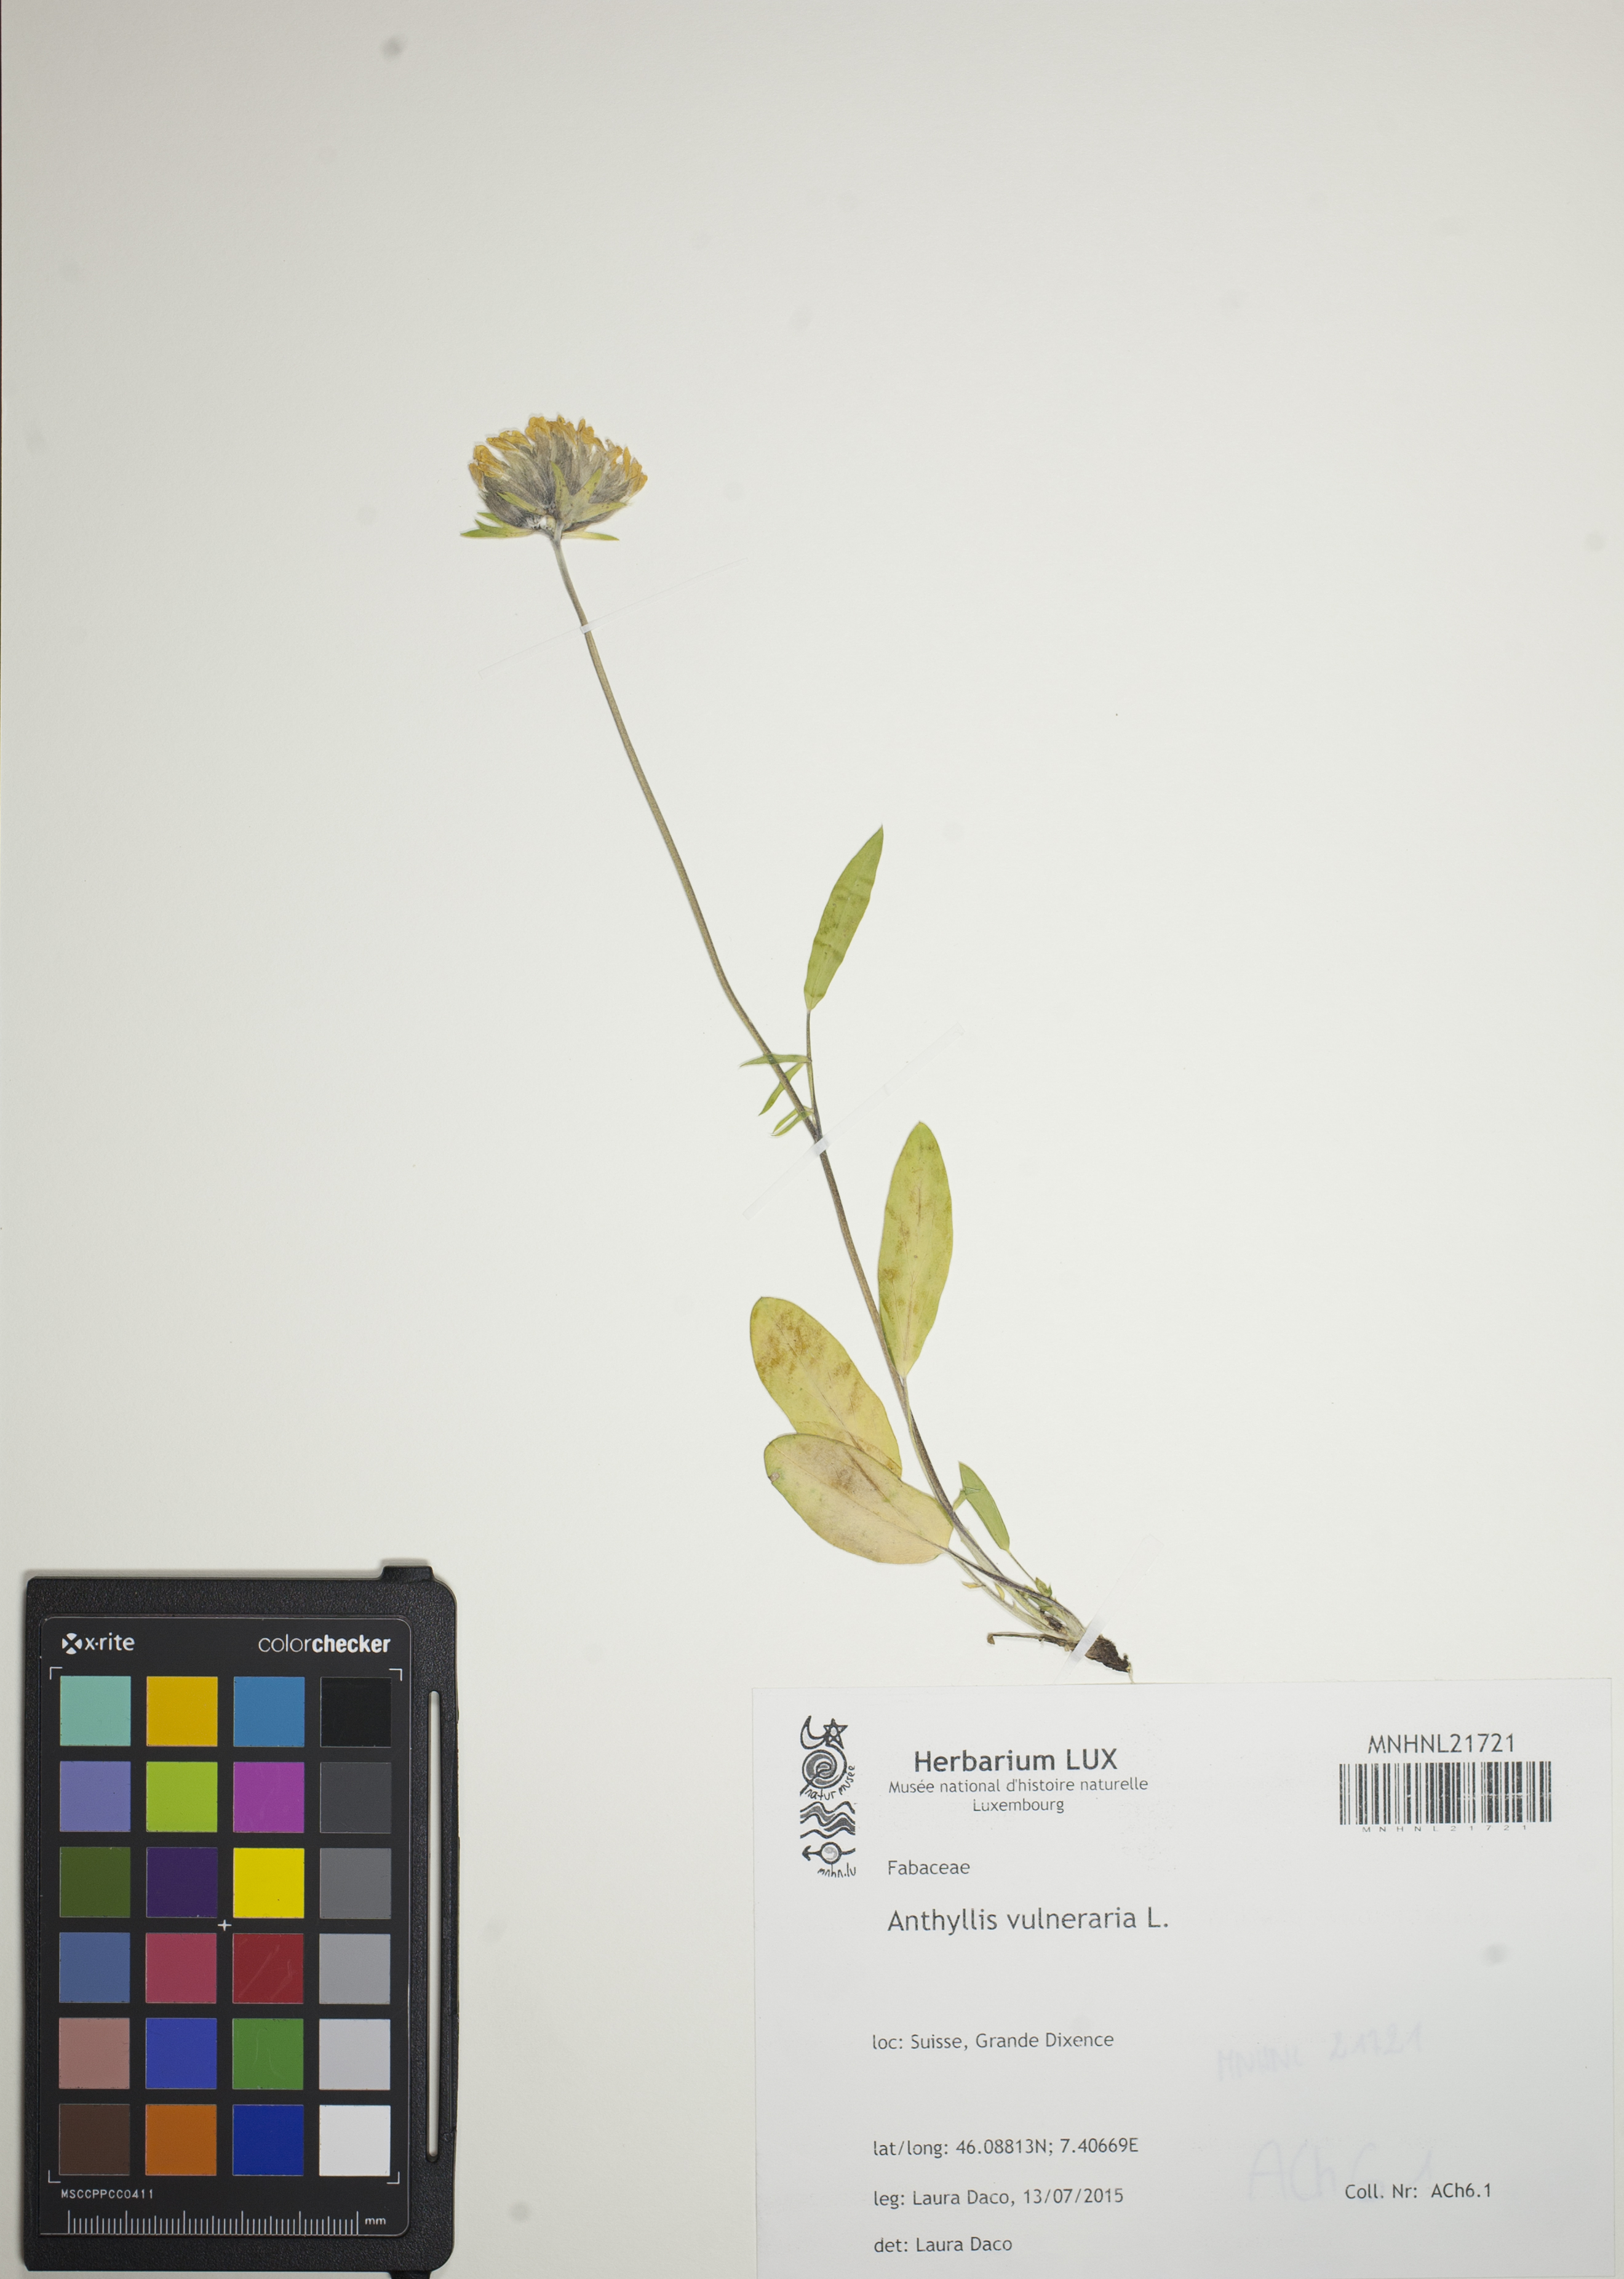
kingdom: Plantae
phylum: Tracheophyta
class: Magnoliopsida
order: Fabales
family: Fabaceae
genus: Anthyllis
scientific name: Anthyllis vulneraria
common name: Kidney vetch
